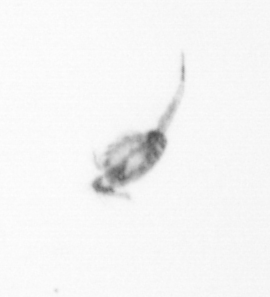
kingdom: Animalia
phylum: Arthropoda
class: Copepoda
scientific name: Copepoda
